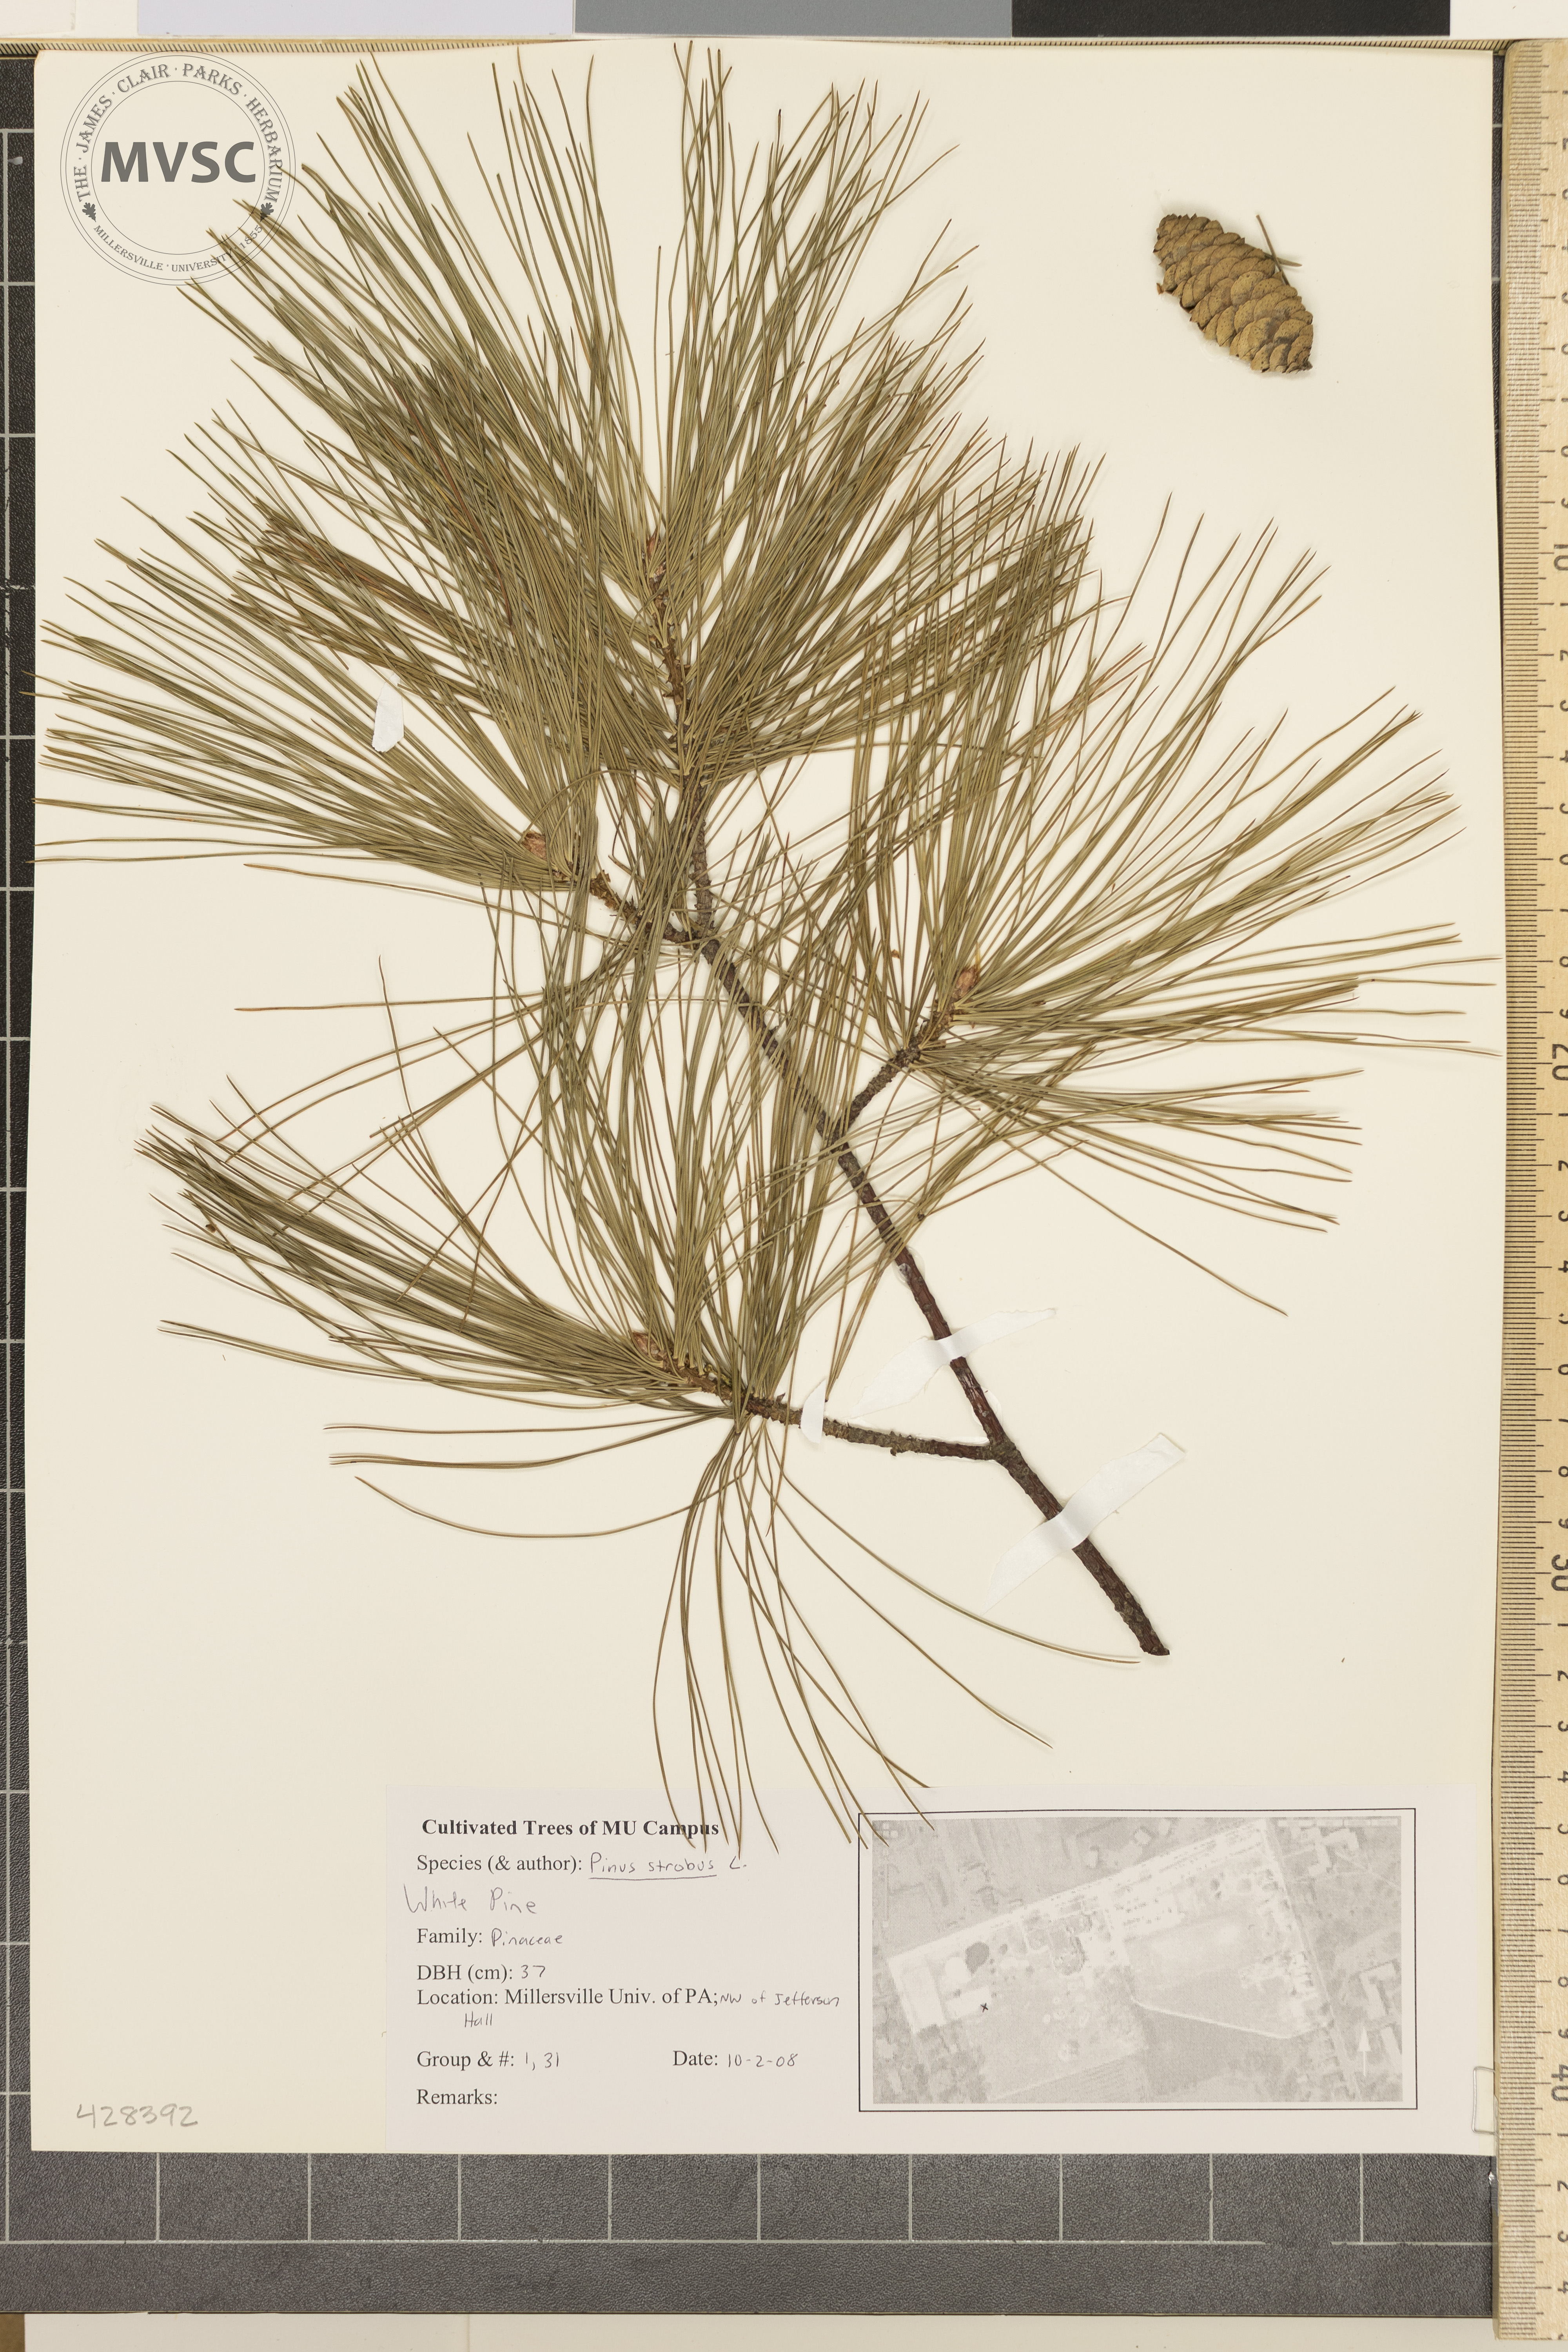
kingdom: Plantae
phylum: Tracheophyta
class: Pinopsida
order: Pinales
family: Pinaceae
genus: Pinus
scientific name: Pinus strobus
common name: Eastern White Pine
